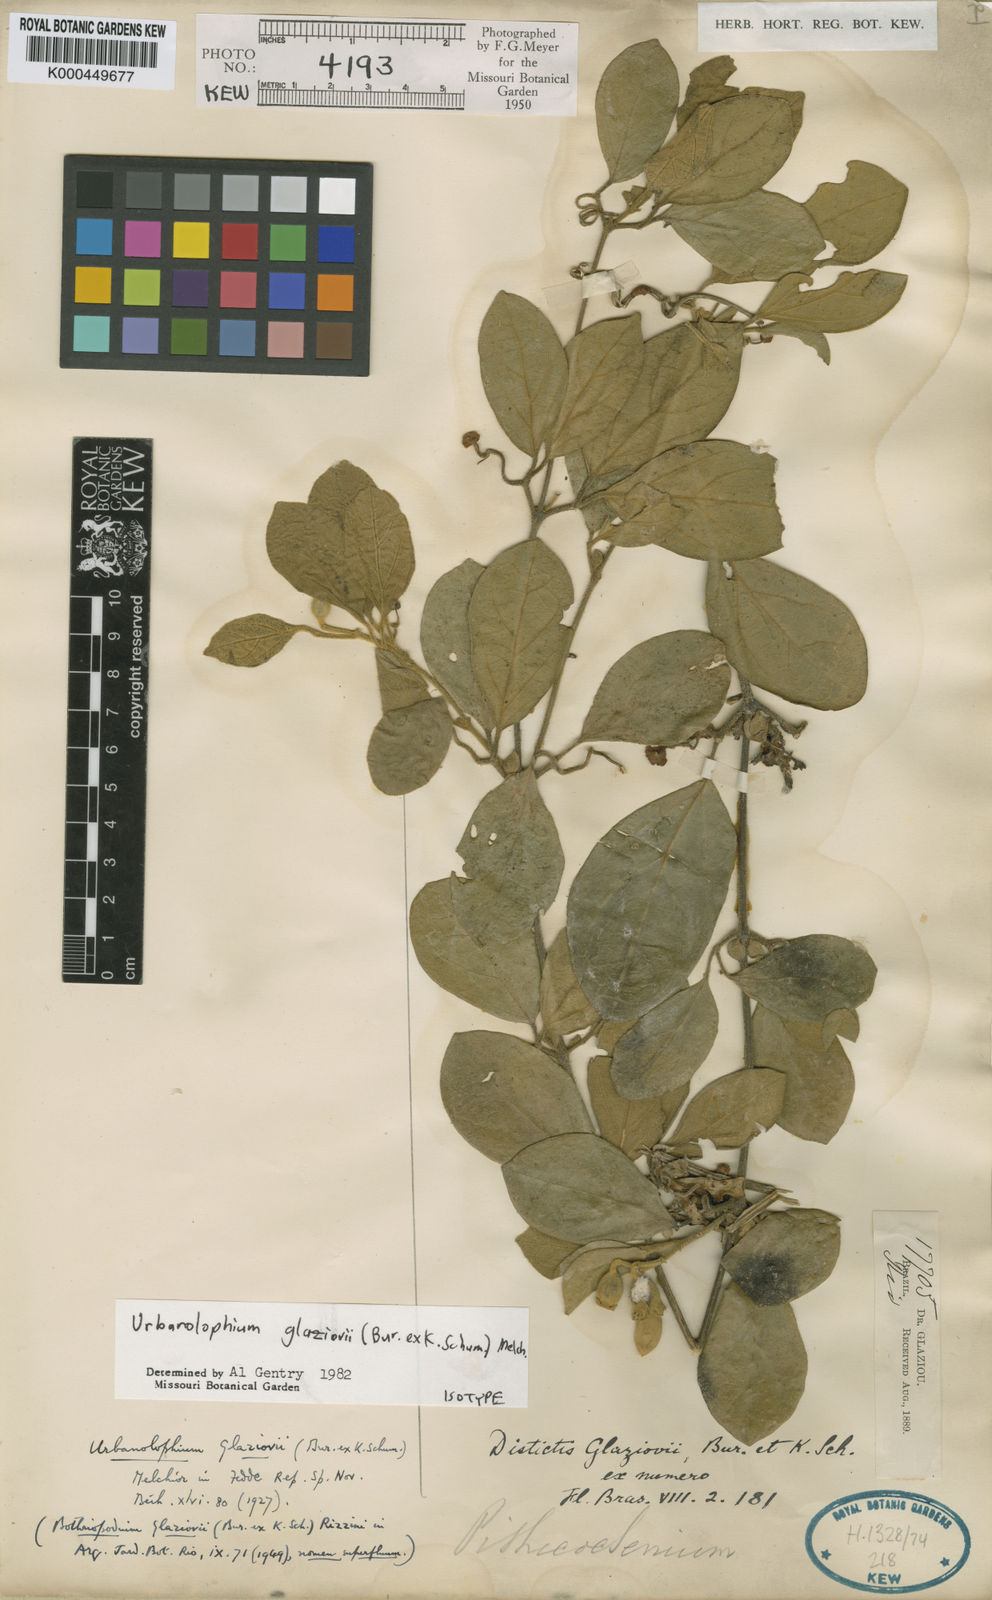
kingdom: Plantae
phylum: Tracheophyta
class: Magnoliopsida
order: Lamiales
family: Bignoniaceae
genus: Amphilophium
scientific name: Amphilophium dusenianum
